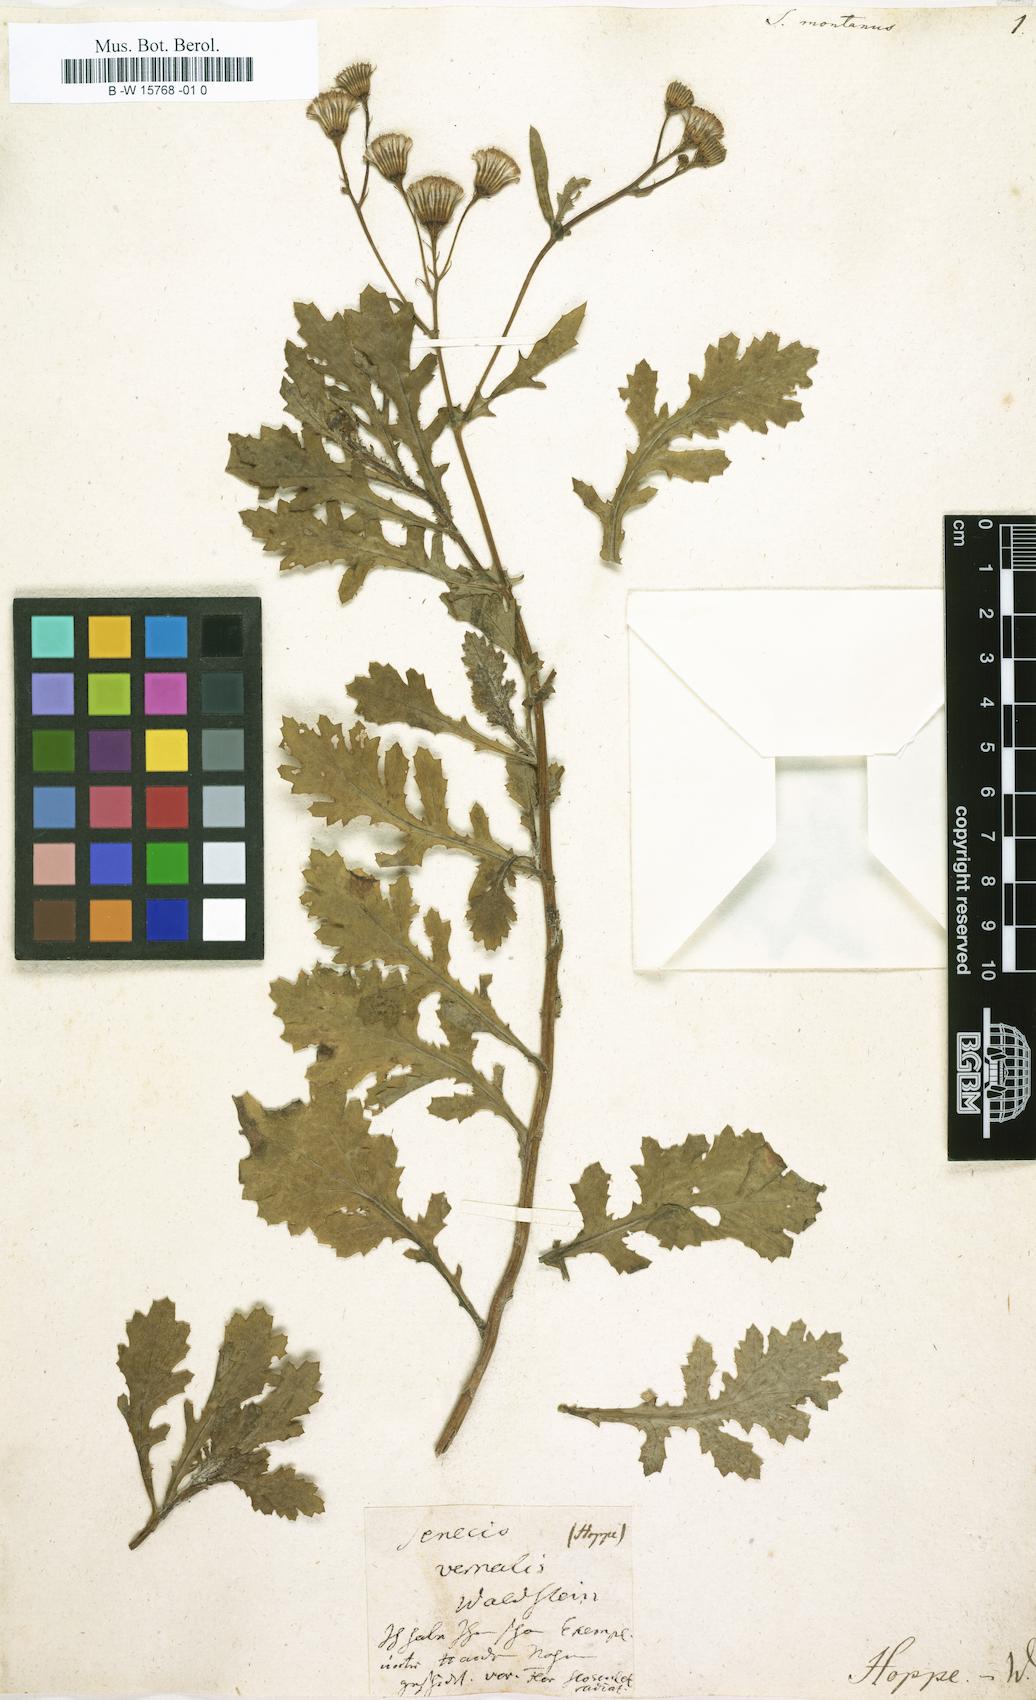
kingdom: Plantae
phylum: Tracheophyta
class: Magnoliopsida
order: Asterales
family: Asteraceae
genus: Senecio
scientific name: Senecio montanus
